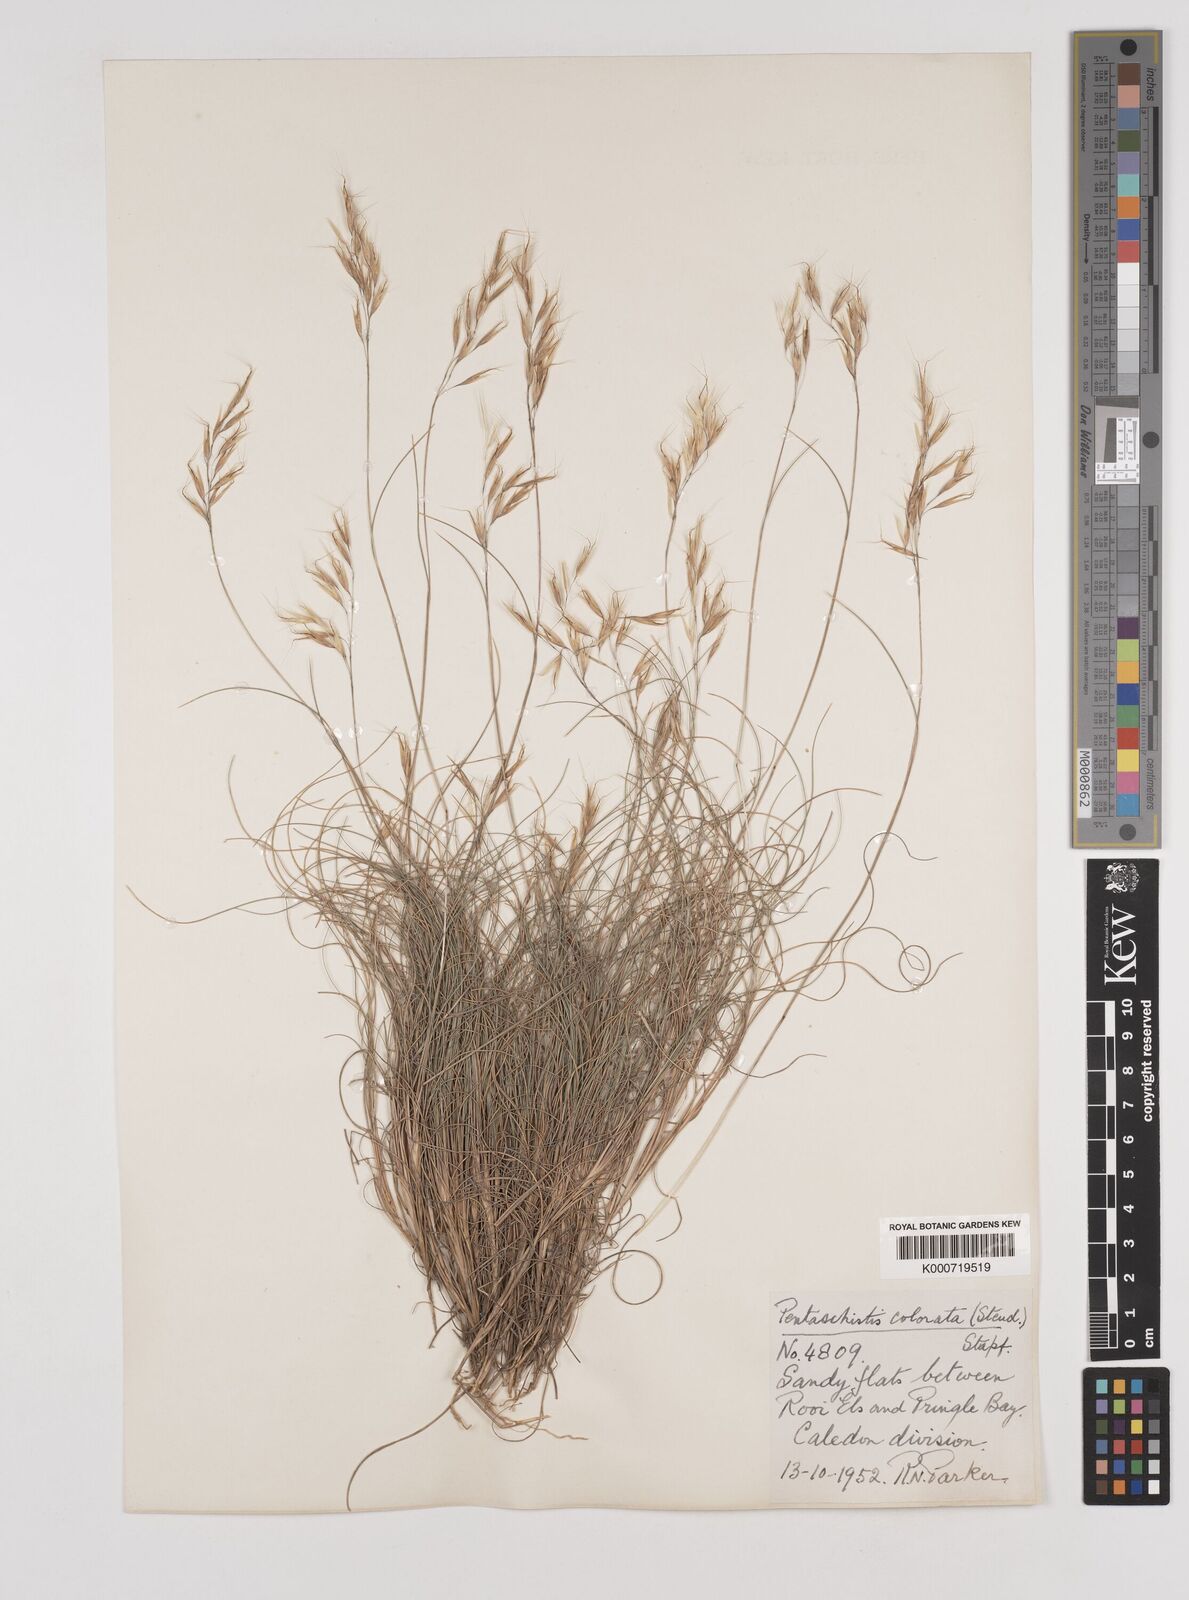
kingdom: Plantae
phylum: Tracheophyta
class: Liliopsida
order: Poales
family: Poaceae
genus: Pentameris
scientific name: Pentameris colorata
